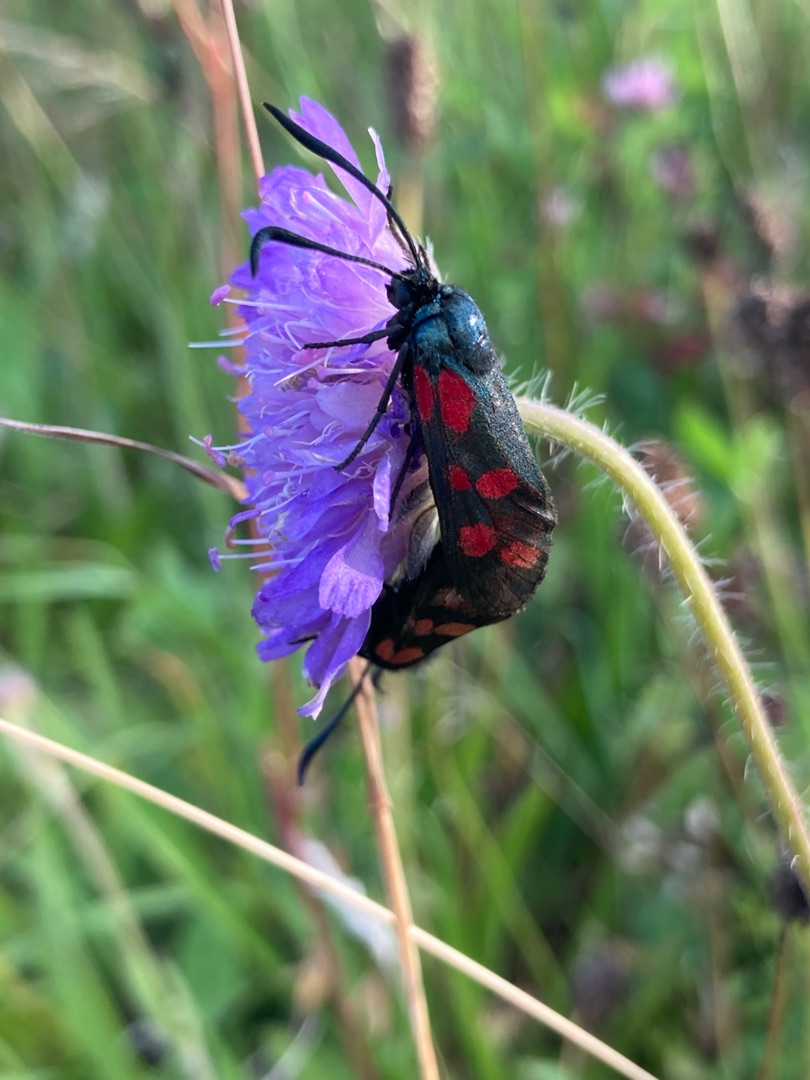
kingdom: Animalia
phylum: Arthropoda
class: Insecta
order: Lepidoptera
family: Zygaenidae
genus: Zygaena
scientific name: Zygaena filipendulae
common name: Seksplettet køllesværmer
